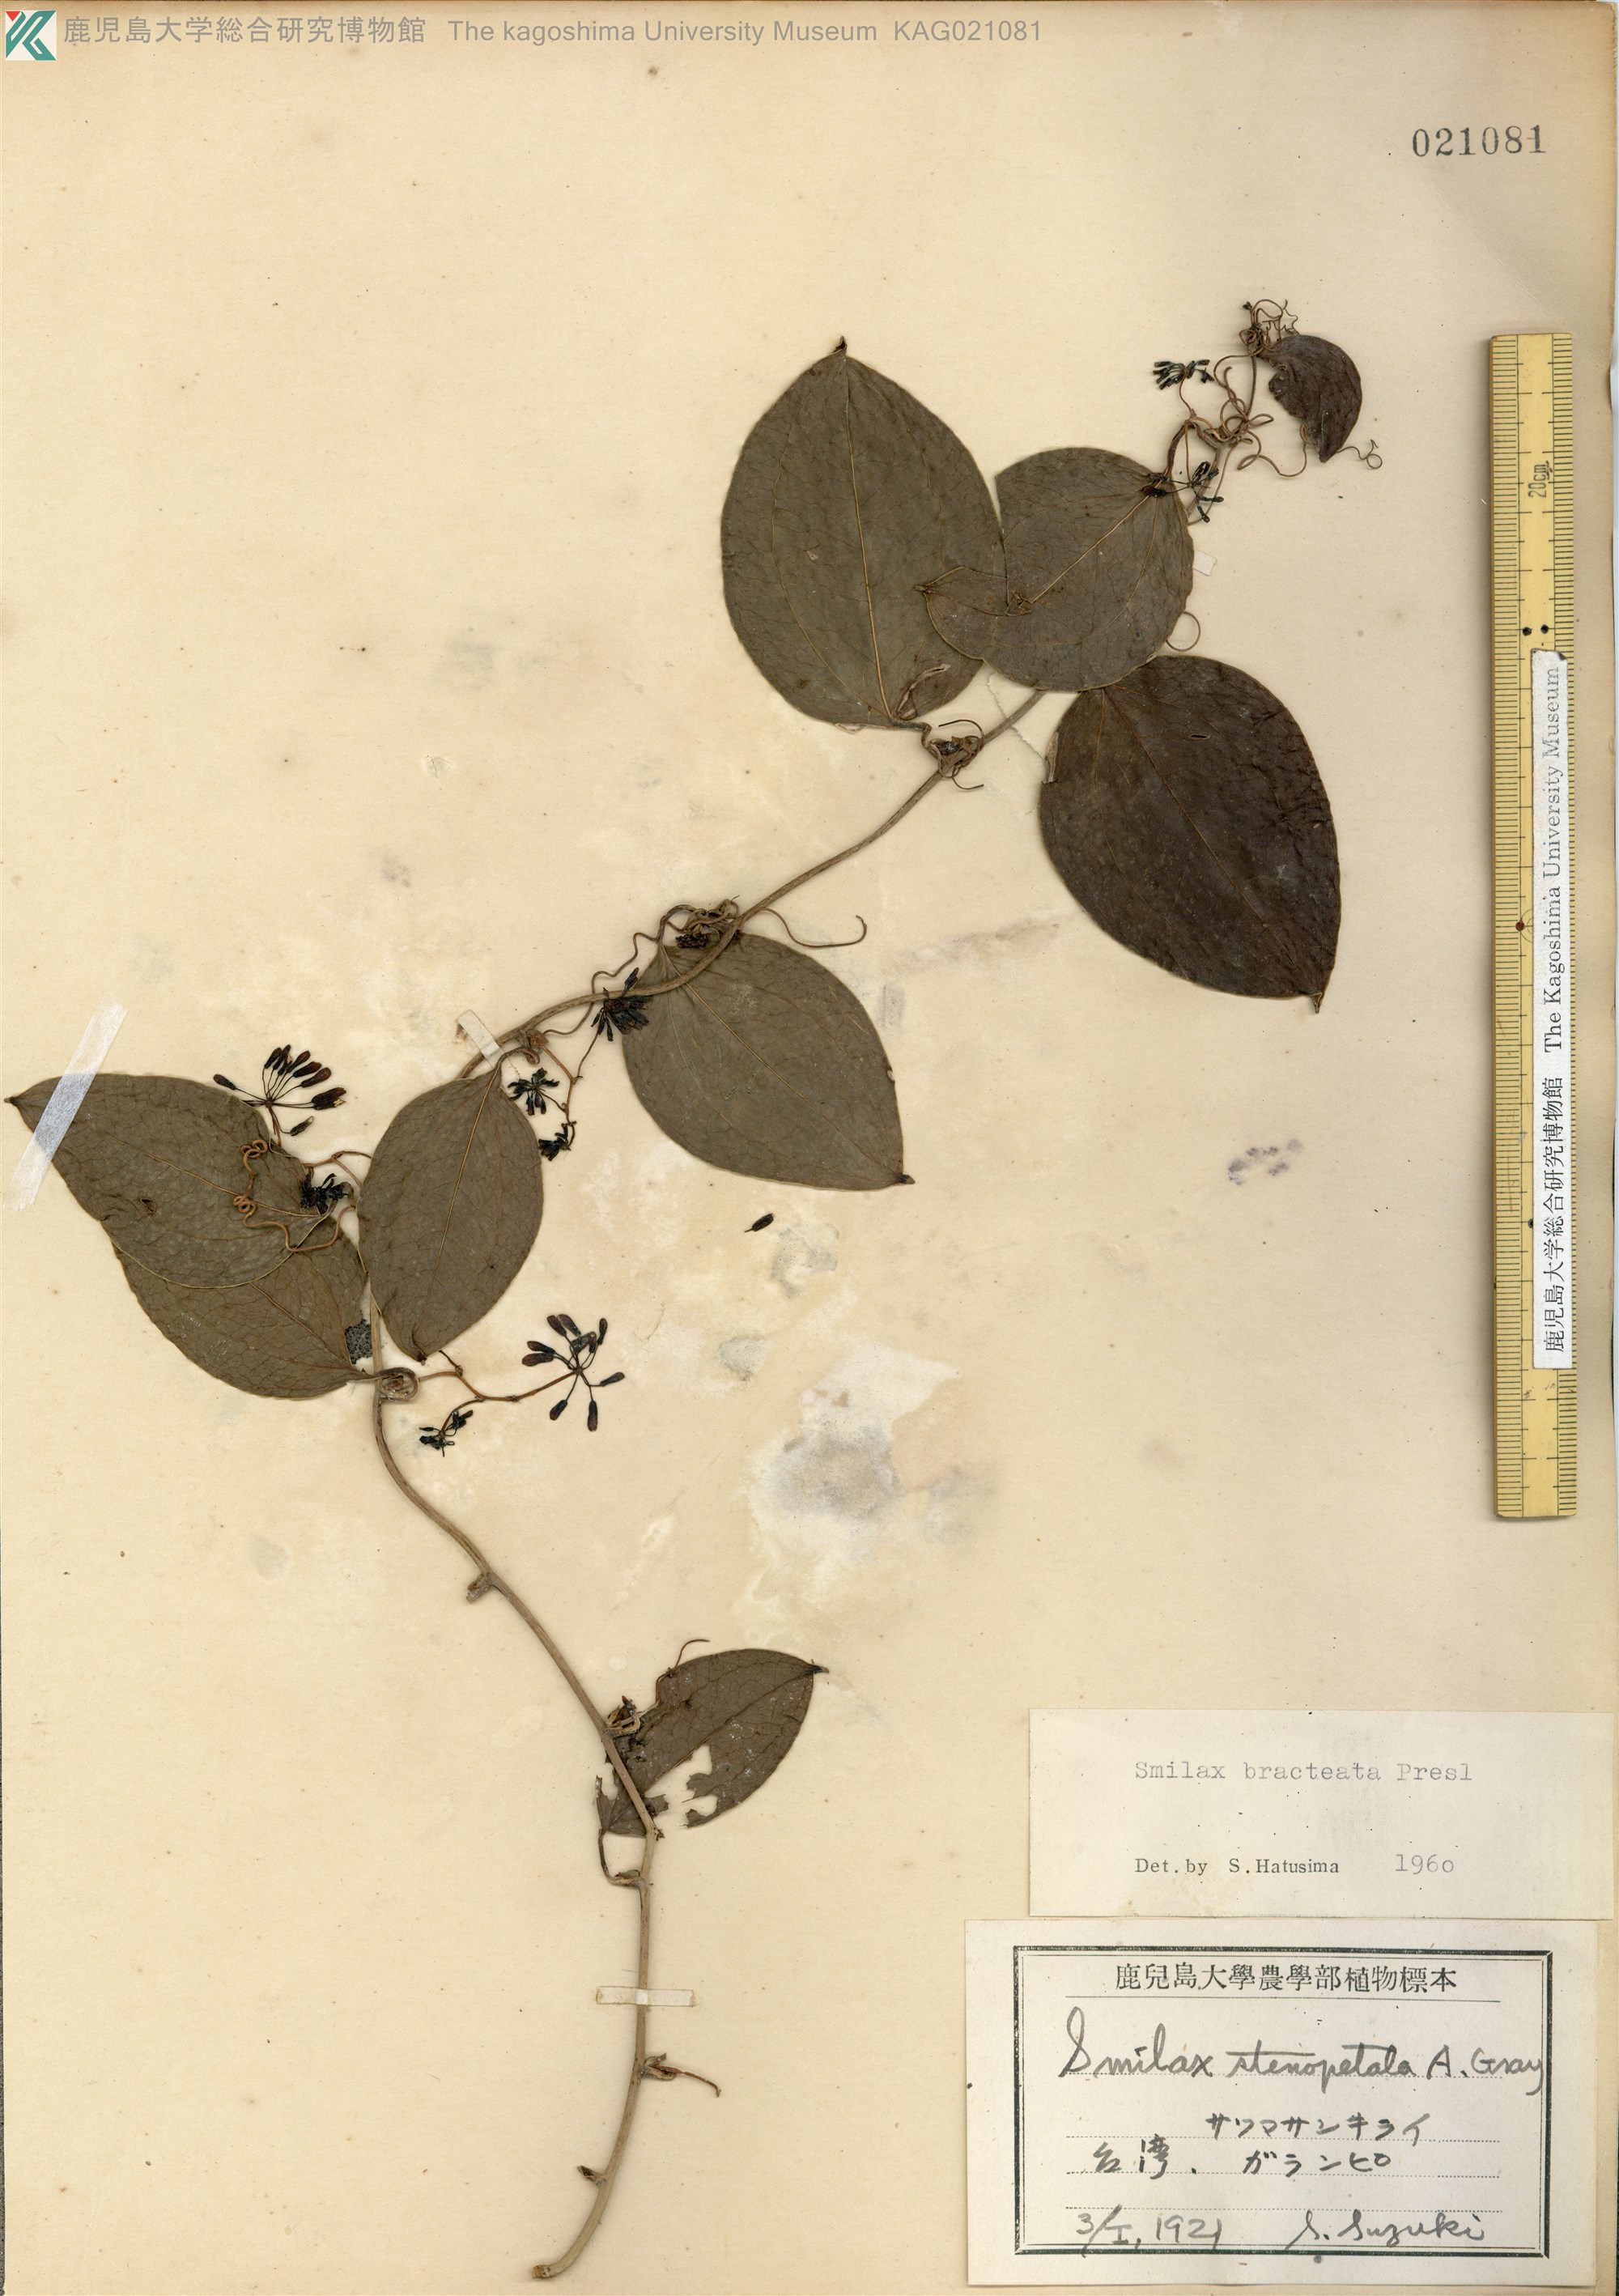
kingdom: Plantae
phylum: Tracheophyta
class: Liliopsida
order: Liliales
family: Smilacaceae
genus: Smilax
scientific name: Smilax bracteata
